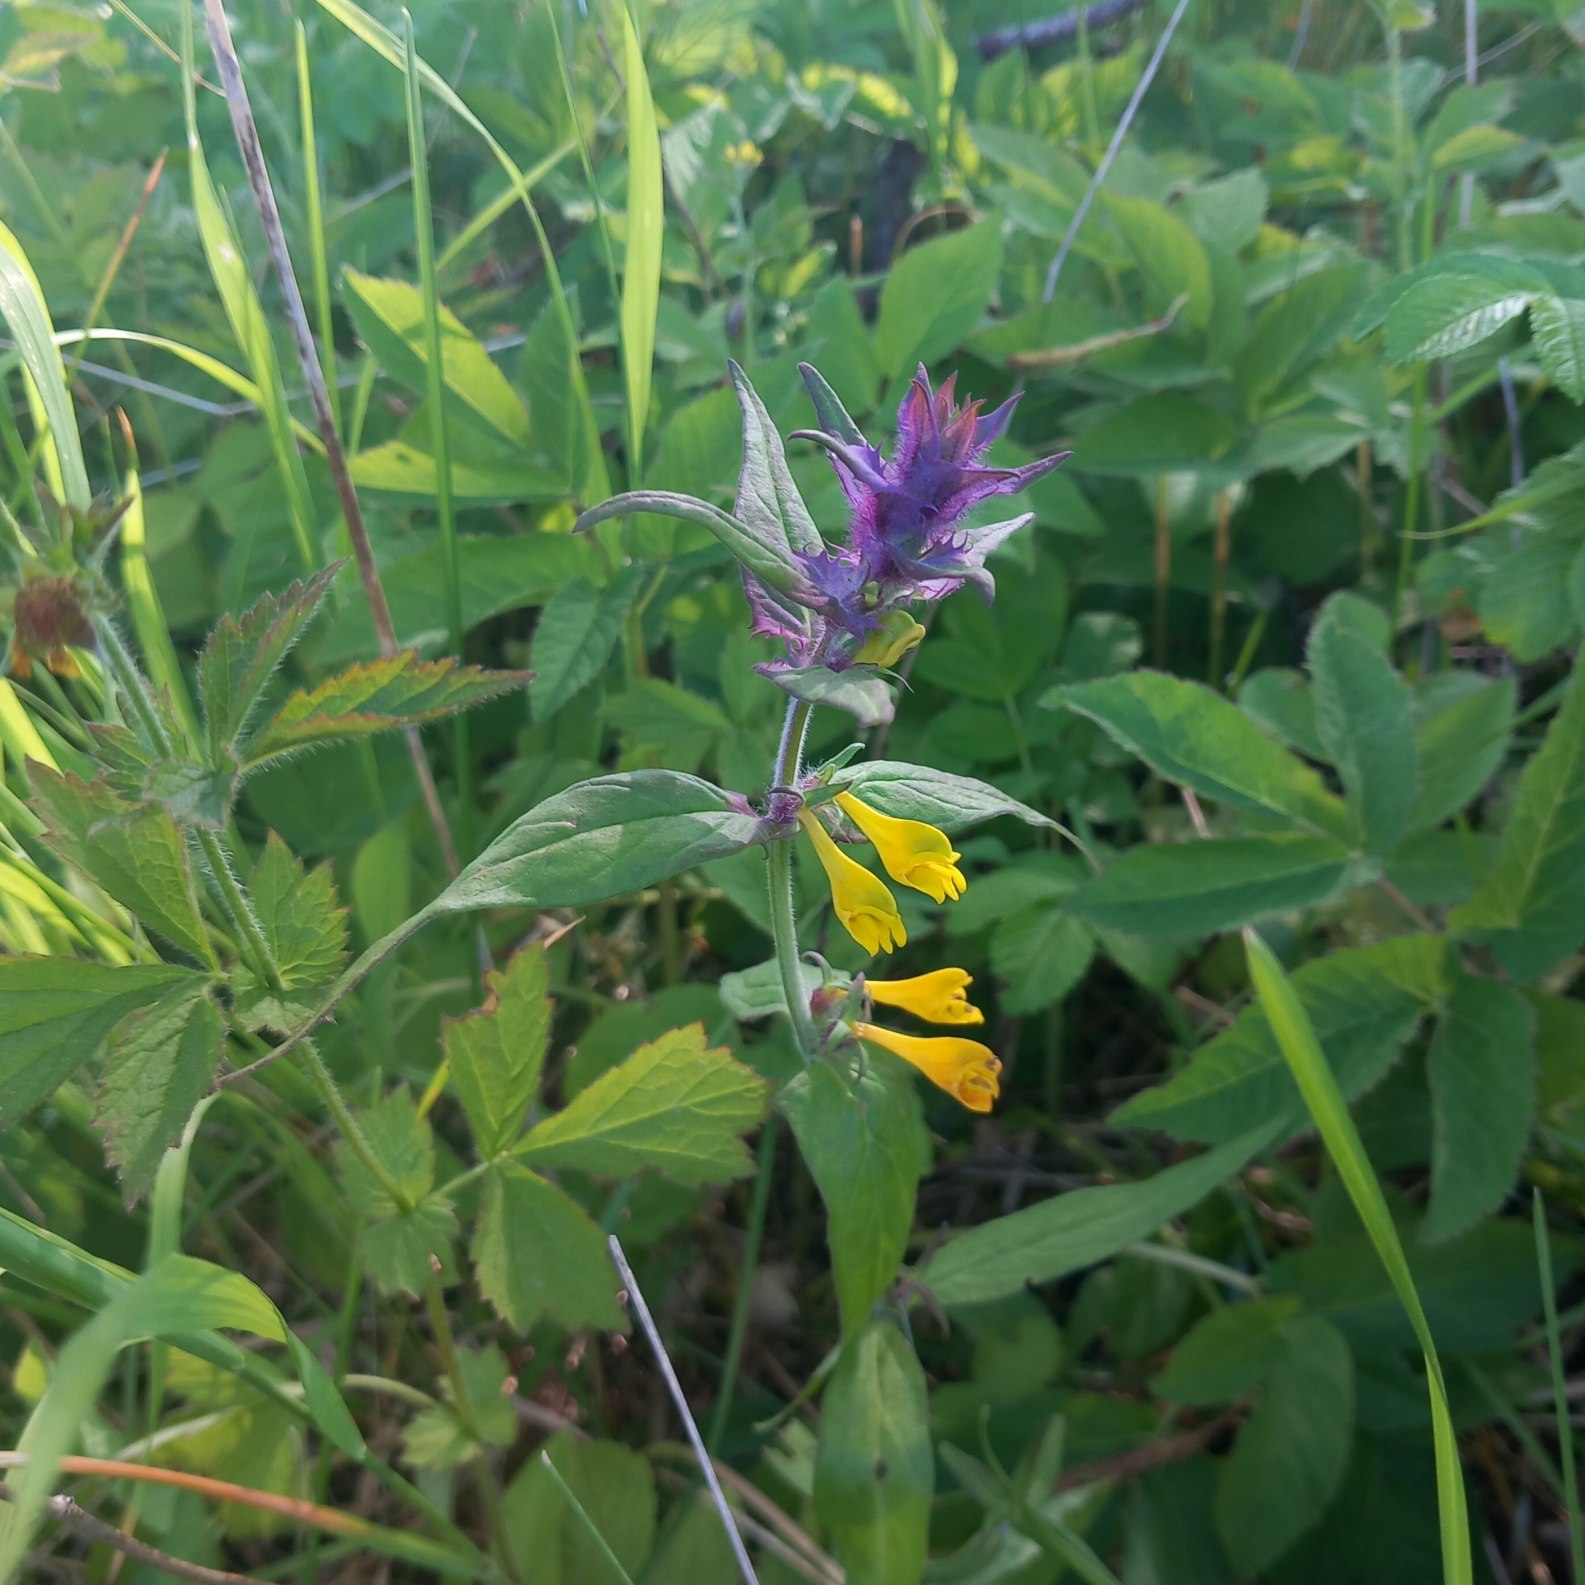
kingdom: Plantae
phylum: Tracheophyta
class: Magnoliopsida
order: Lamiales
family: Orobanchaceae
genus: Melampyrum
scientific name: Melampyrum nemorosum
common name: Blåtoppet kohvede
